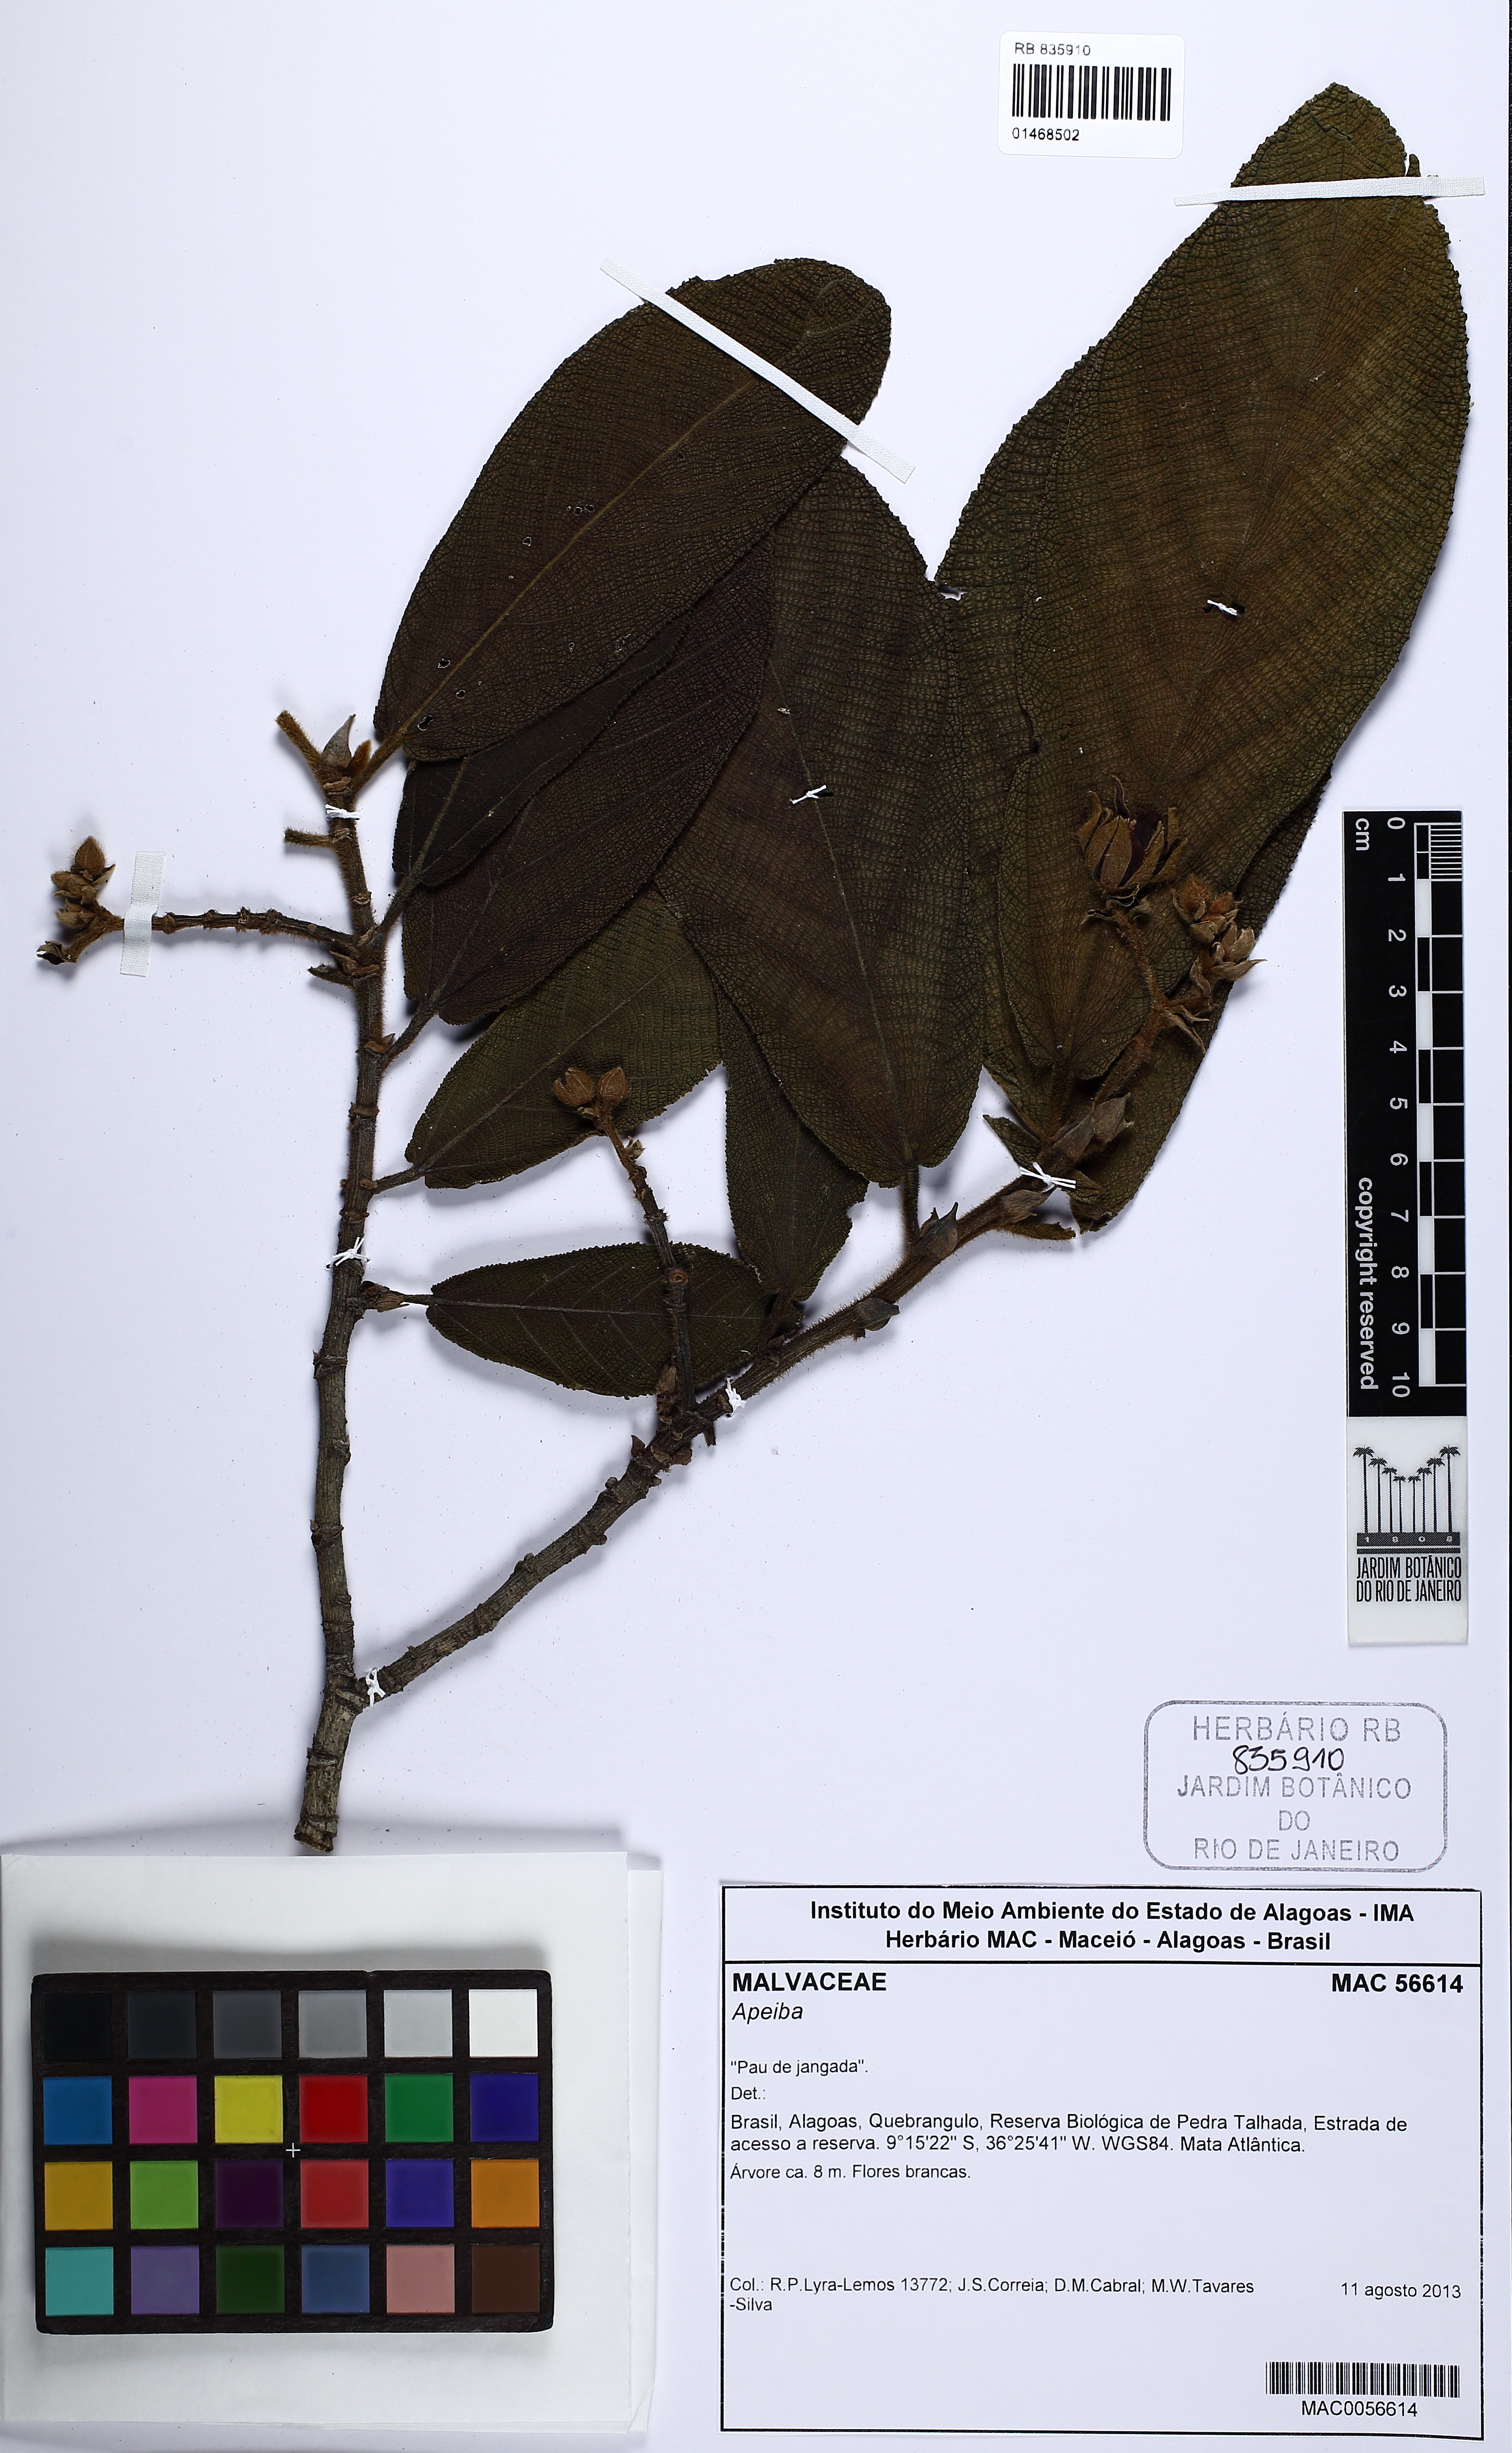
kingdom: Plantae
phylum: Tracheophyta
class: Magnoliopsida
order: Malvales
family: Malvaceae
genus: Apeiba
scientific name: Apeiba albiflora
